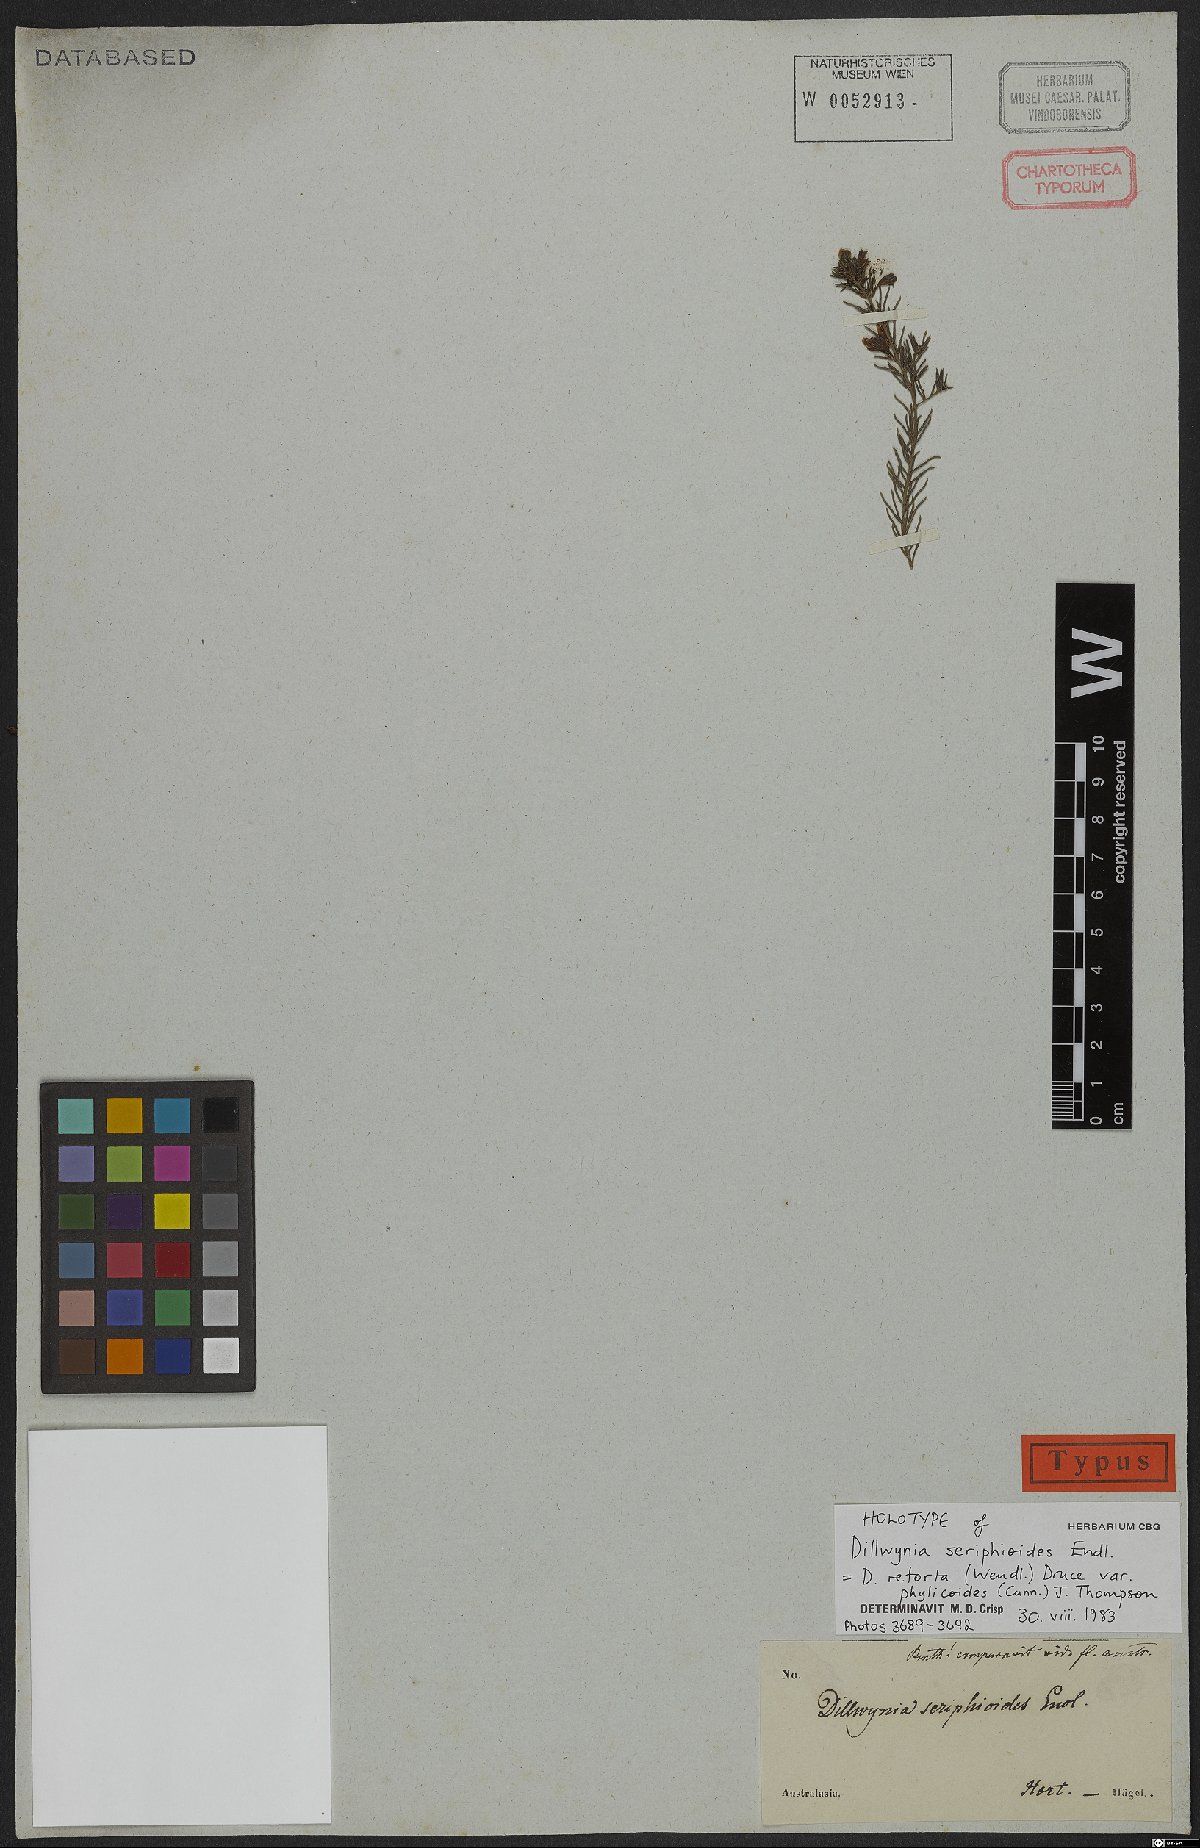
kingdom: Plantae
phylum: Tracheophyta
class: Magnoliopsida
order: Fabales
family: Fabaceae
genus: Dillwynia
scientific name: Dillwynia phylicoides
